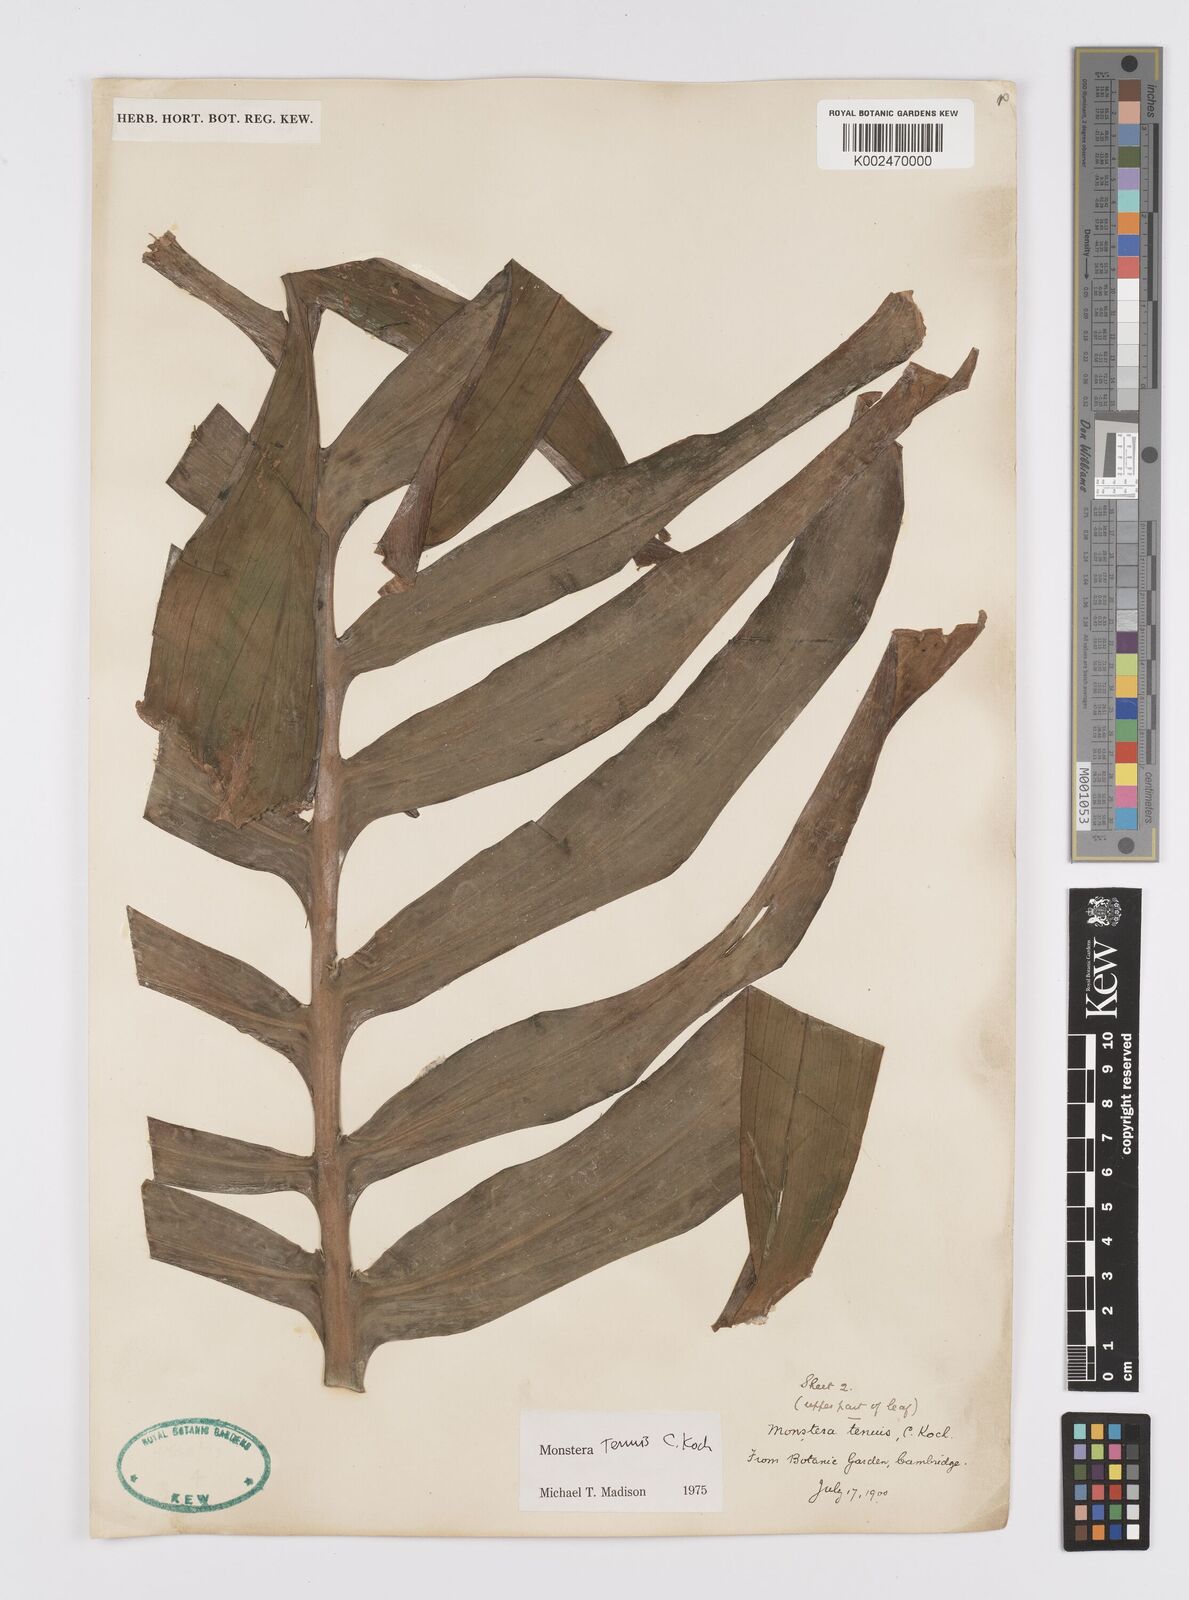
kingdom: Plantae
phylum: Tracheophyta
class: Liliopsida
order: Alismatales
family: Araceae
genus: Monstera
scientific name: Monstera tenuis
